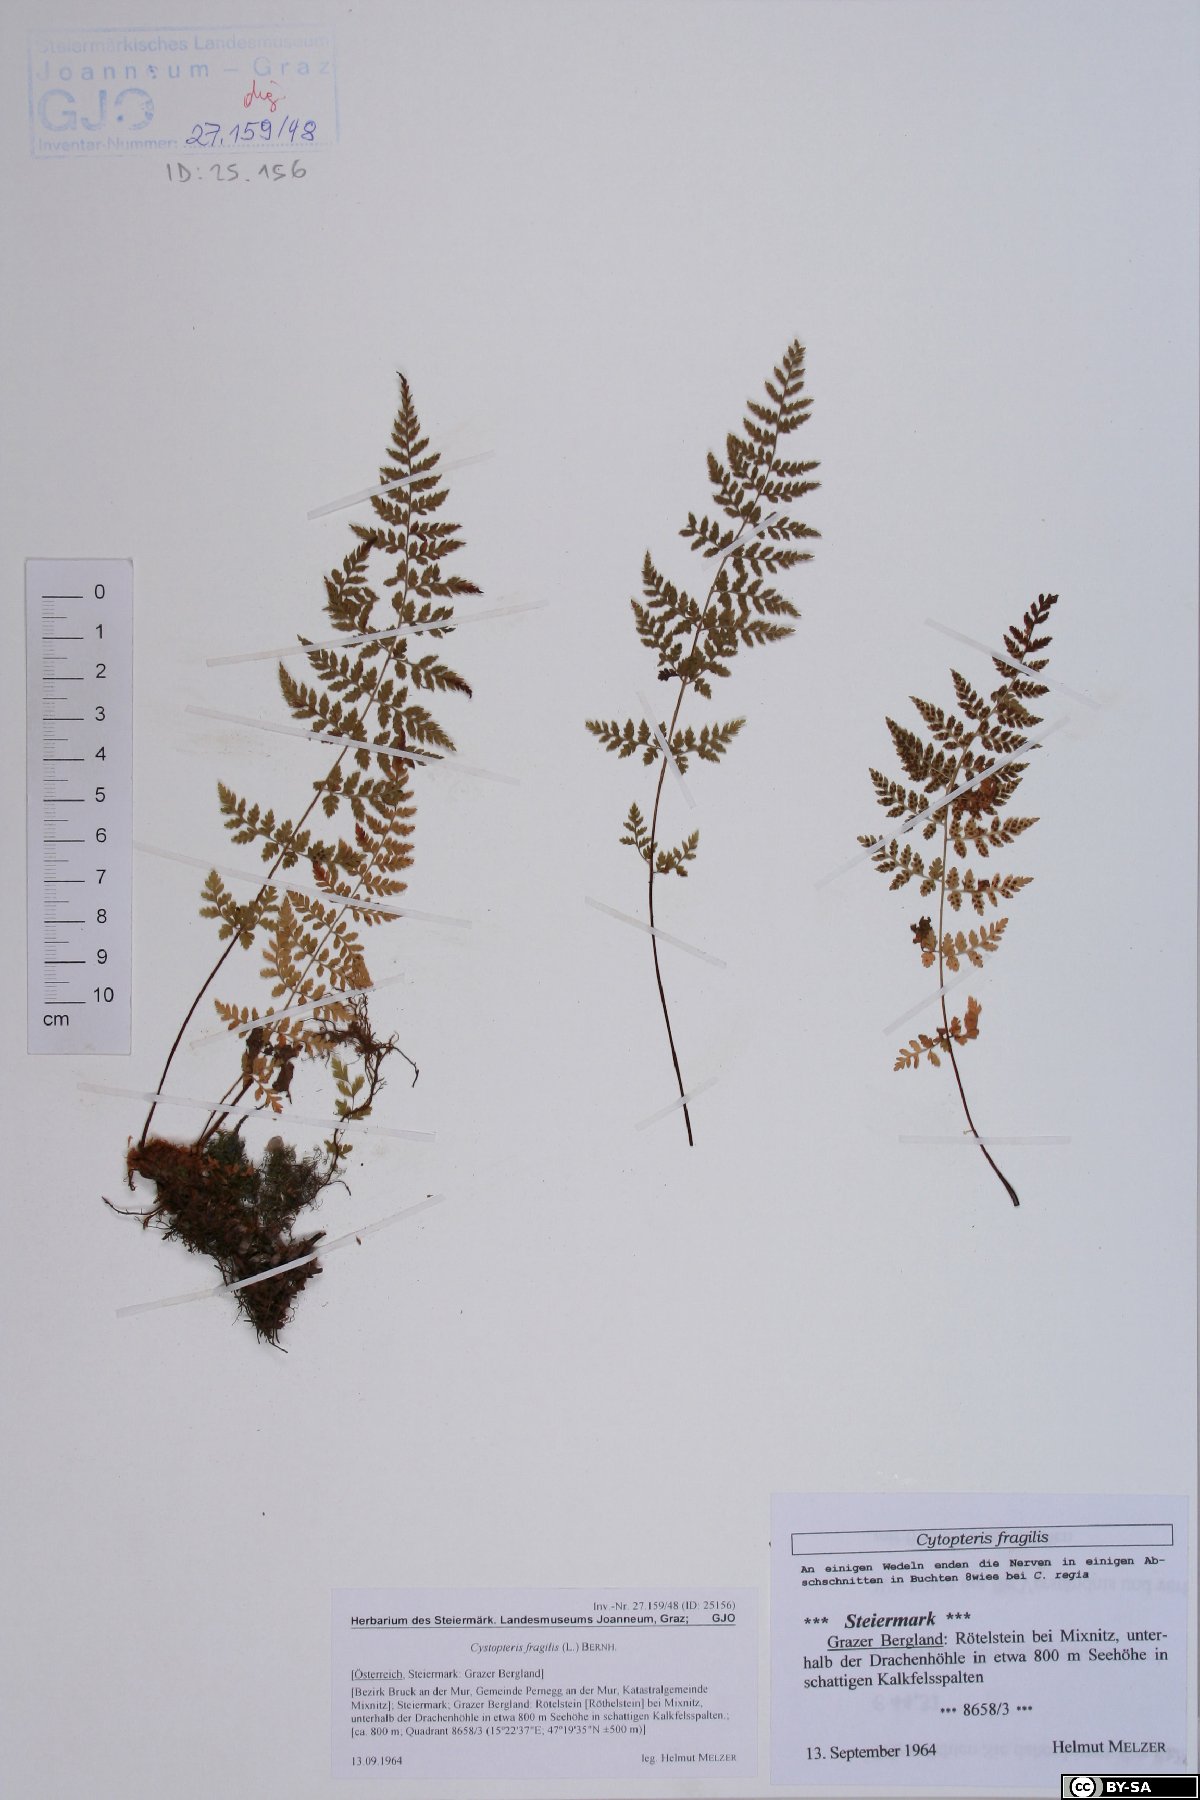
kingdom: Plantae
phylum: Tracheophyta
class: Polypodiopsida
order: Polypodiales
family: Cystopteridaceae
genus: Cystopteris
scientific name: Cystopteris fragilis
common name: Brittle bladder fern
